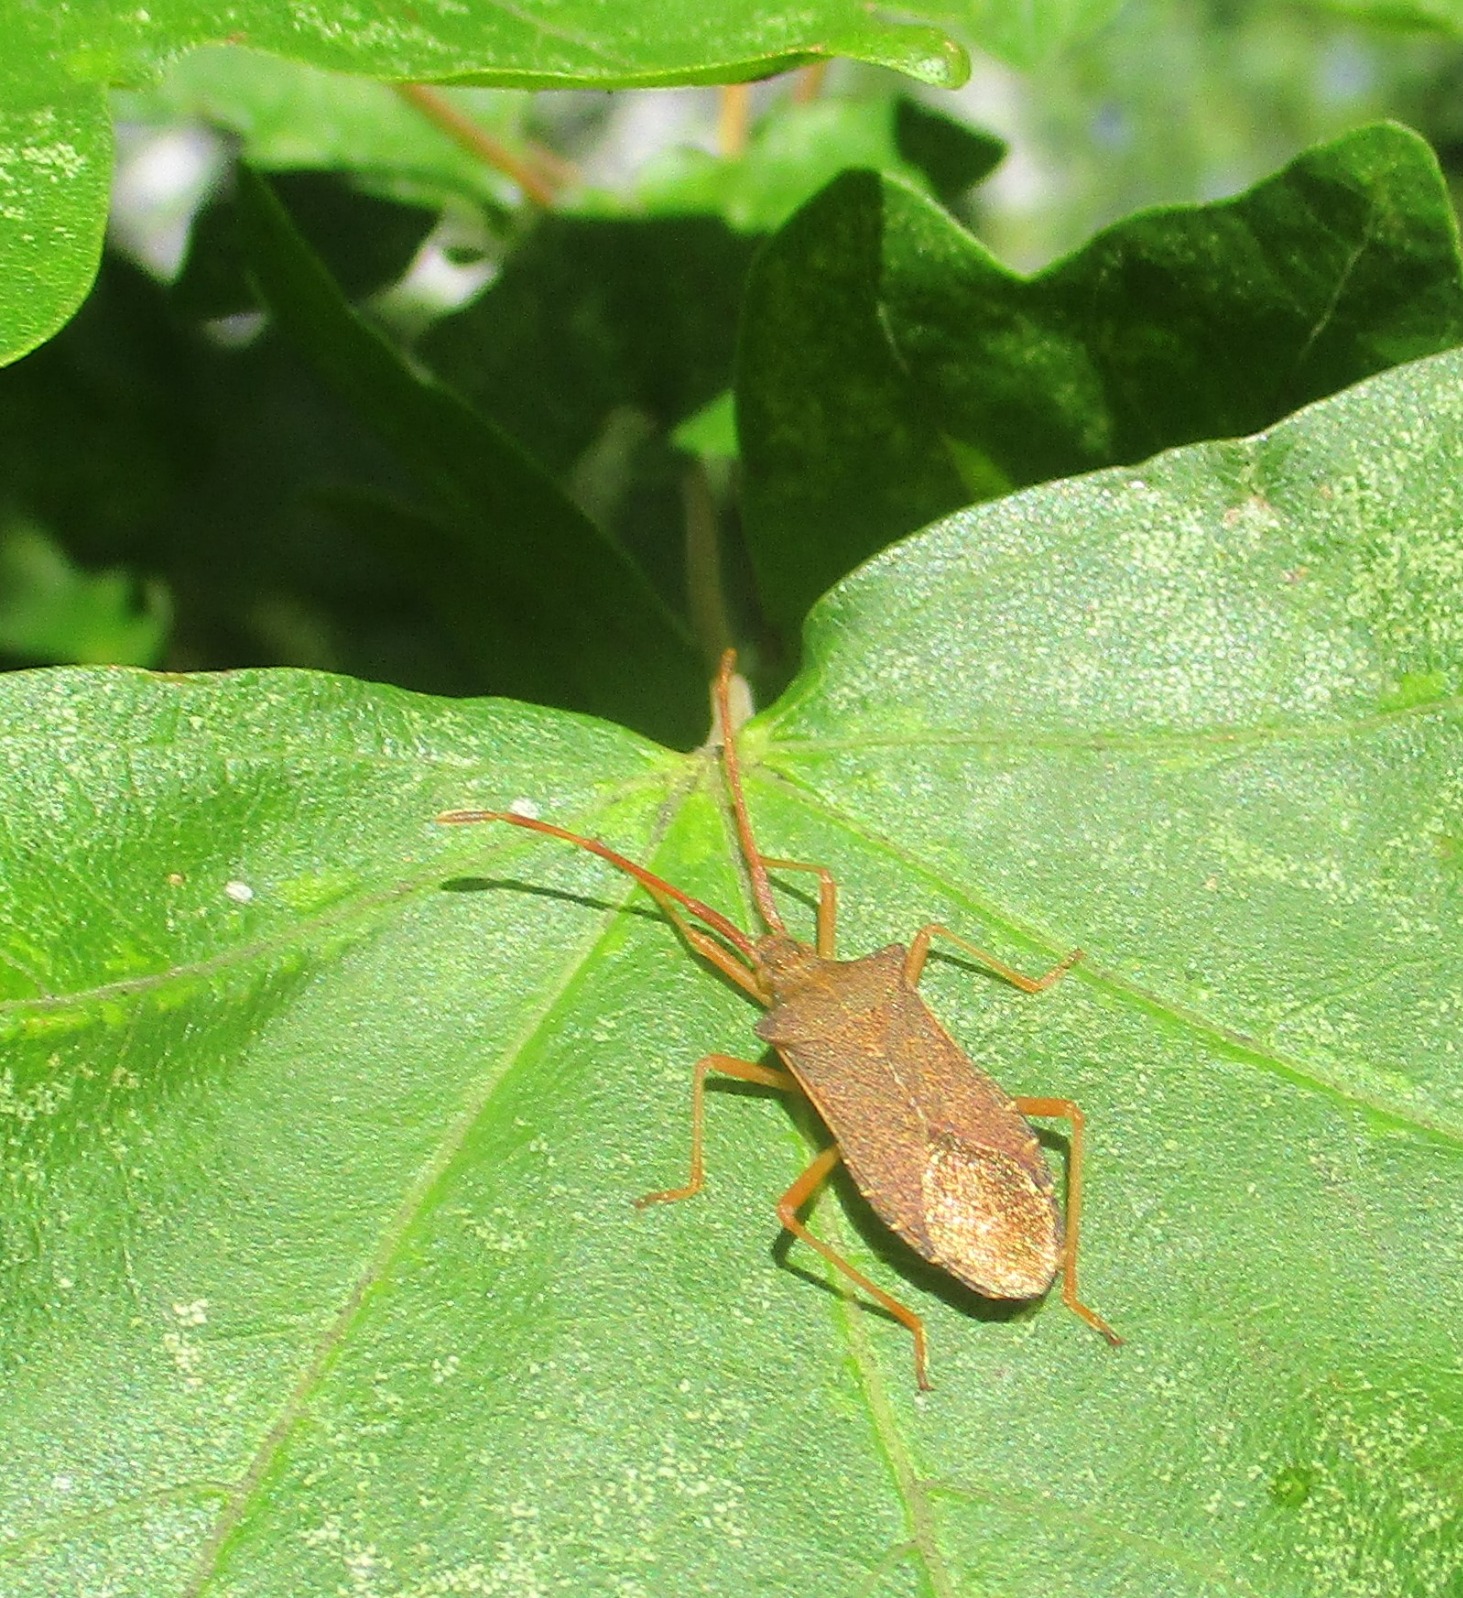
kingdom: Animalia
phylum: Arthropoda
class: Insecta
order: Hemiptera
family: Coreidae
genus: Gonocerus
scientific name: Gonocerus acuteangulatus
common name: Slåenrandtæge
